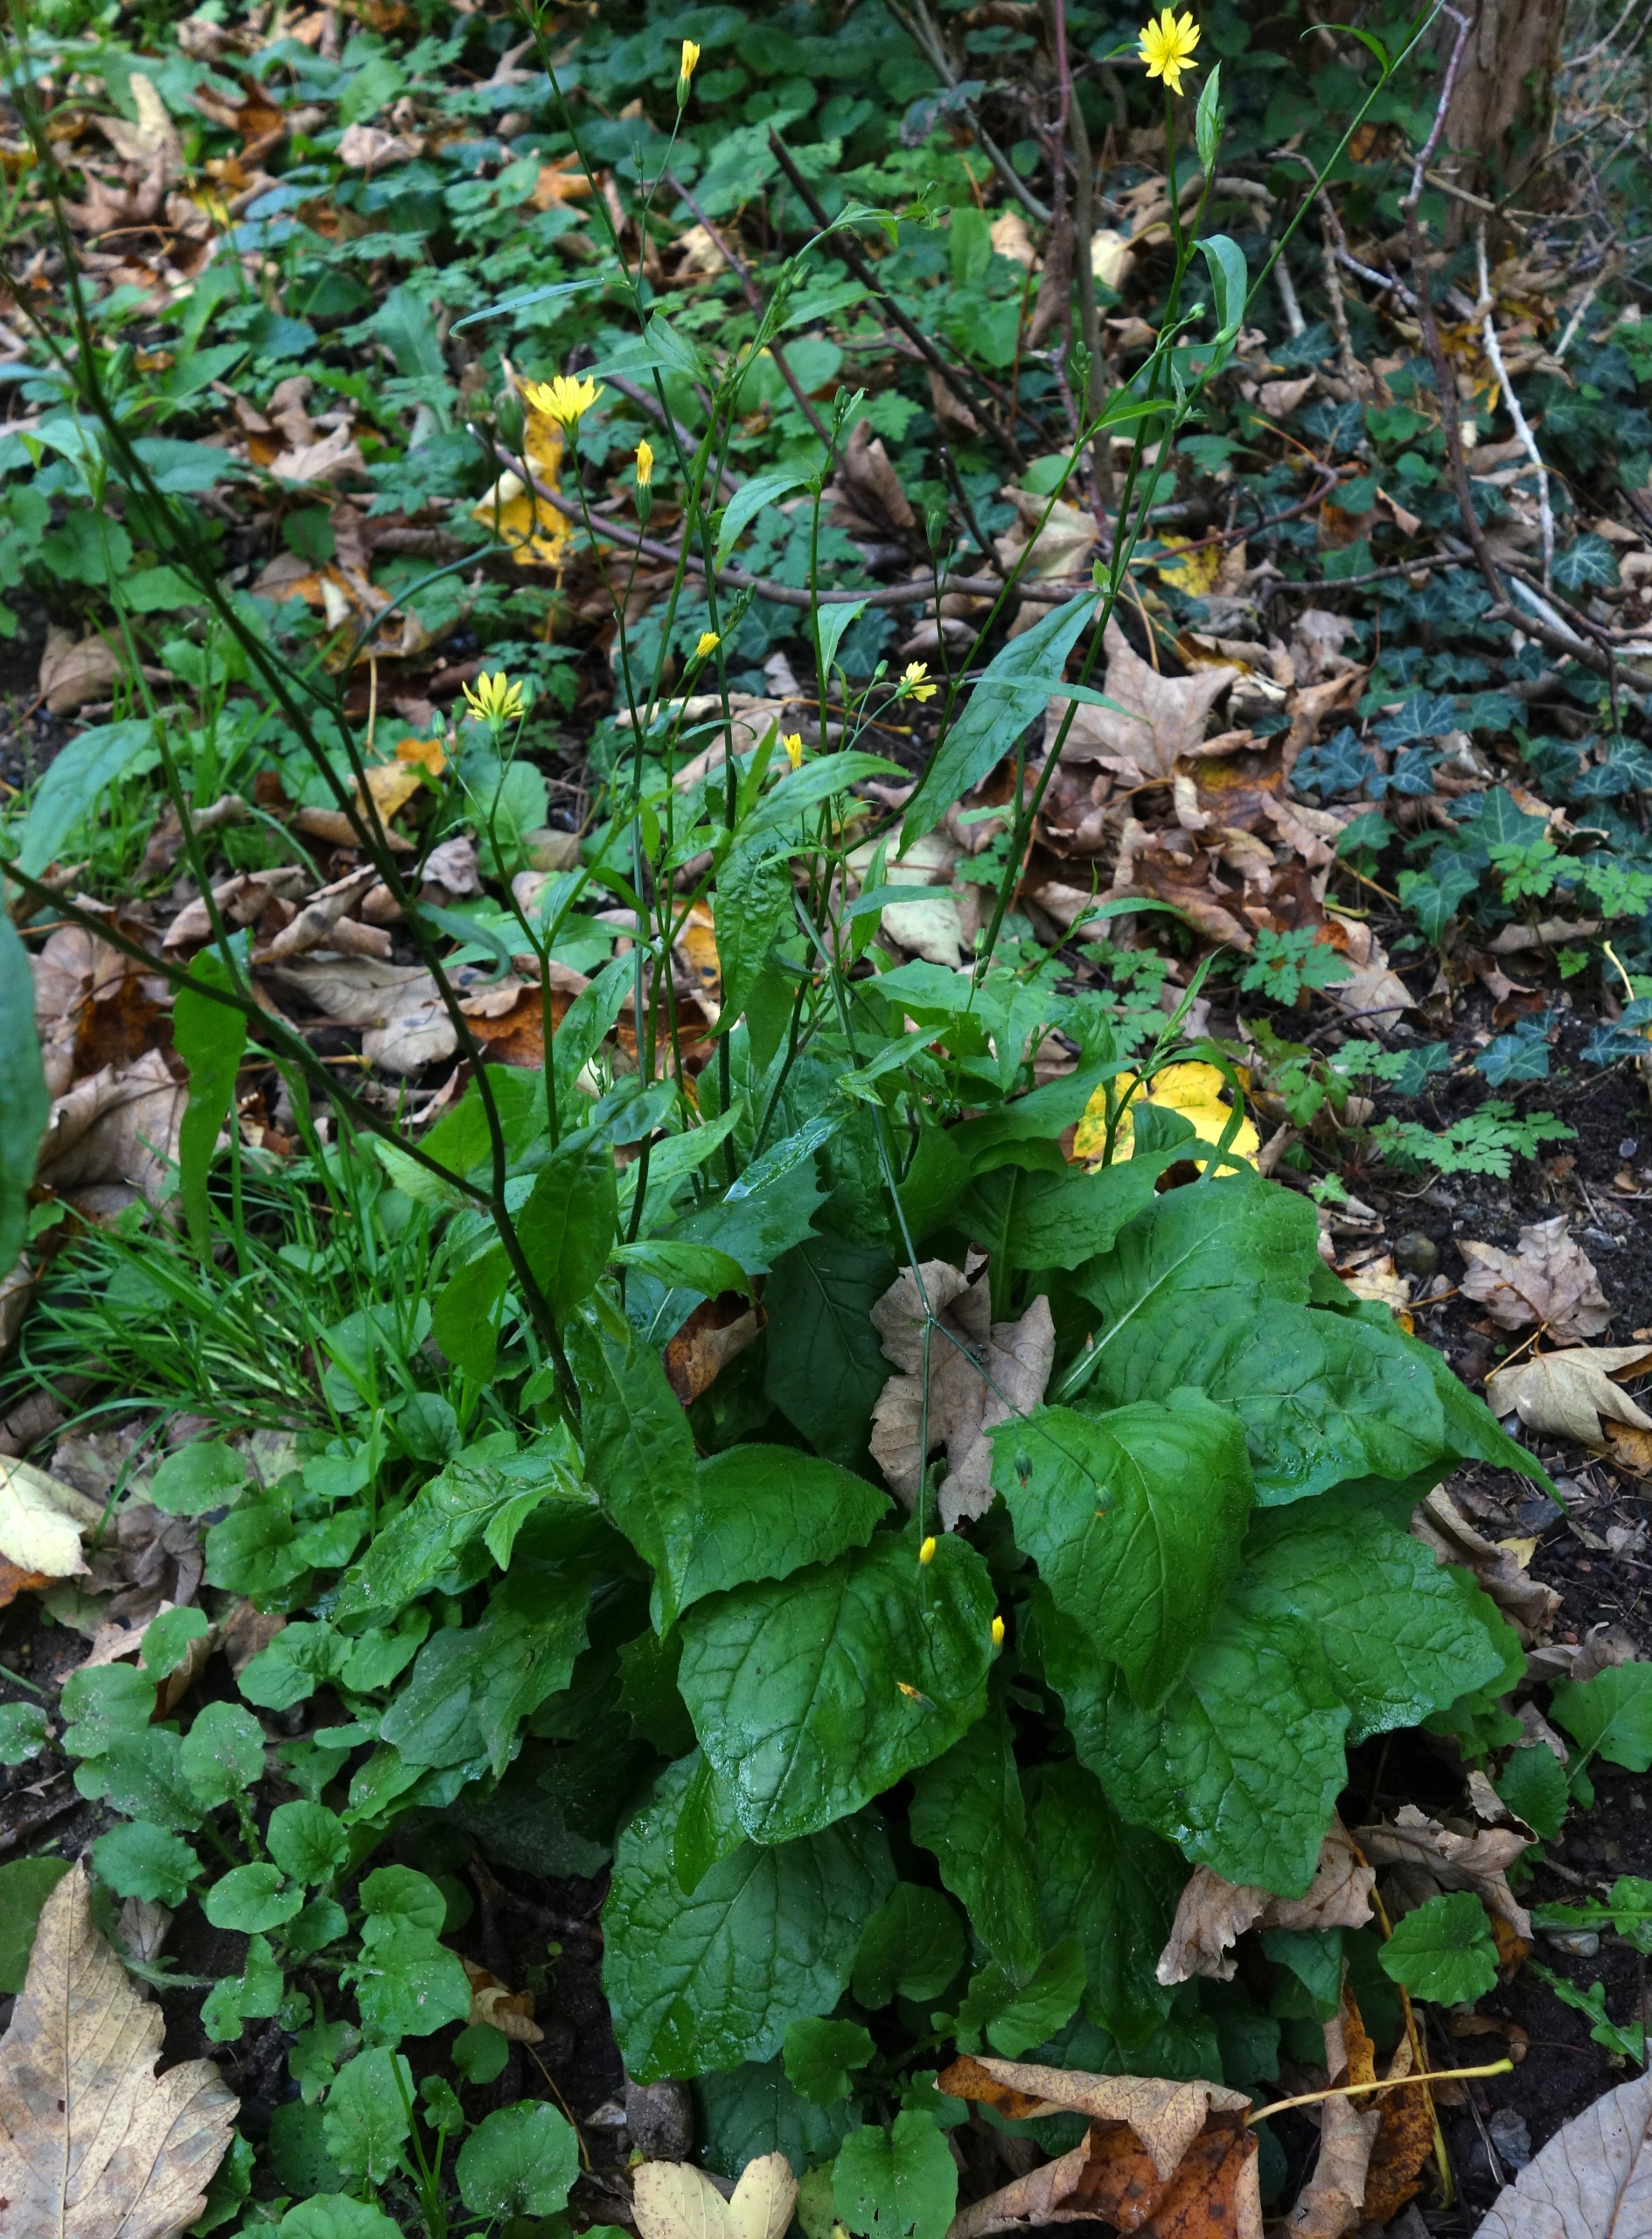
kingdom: Plantae
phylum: Tracheophyta
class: Magnoliopsida
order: Asterales
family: Asteraceae
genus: Lapsana
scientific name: Lapsana communis
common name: Haremad
